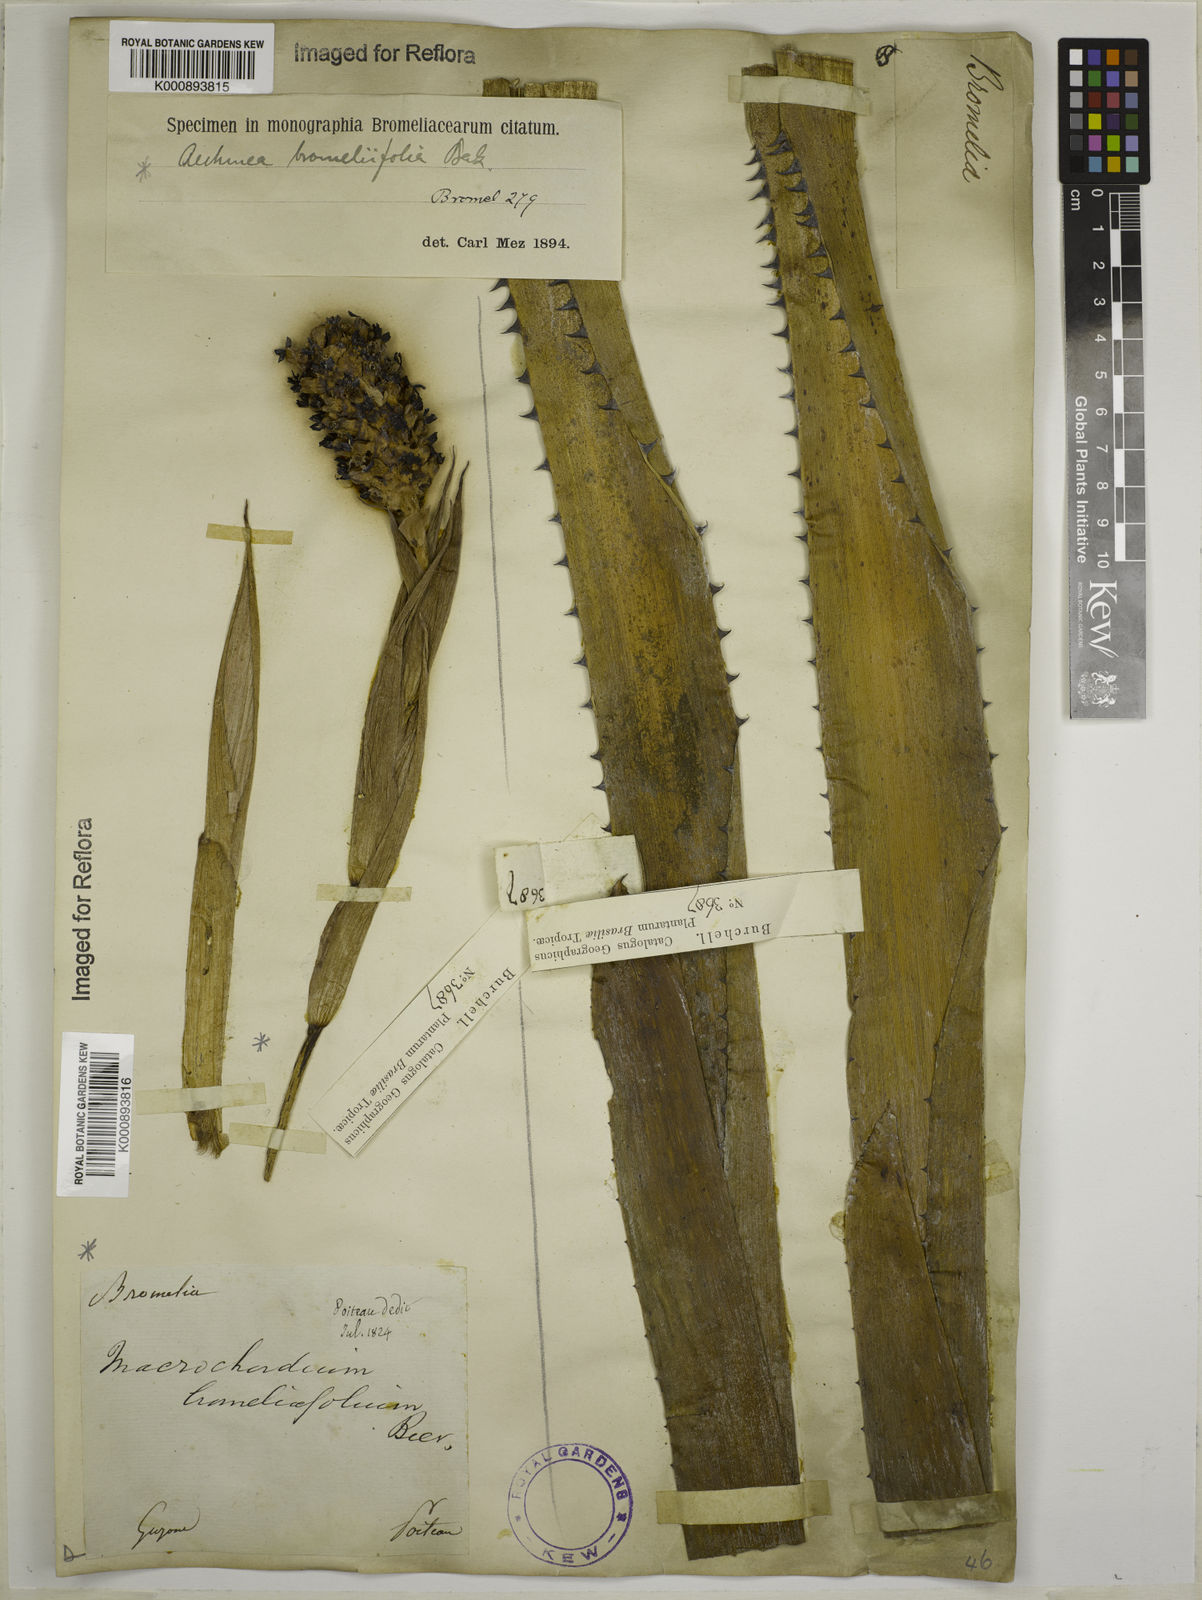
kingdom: Plantae
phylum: Tracheophyta
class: Liliopsida
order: Poales
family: Bromeliaceae
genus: Aechmea
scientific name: Aechmea
